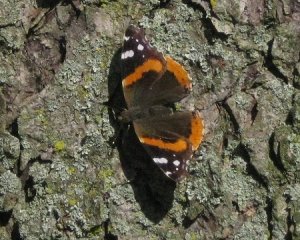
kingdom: Animalia
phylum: Arthropoda
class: Insecta
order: Lepidoptera
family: Nymphalidae
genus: Vanessa
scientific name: Vanessa atalanta
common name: Red Admiral
